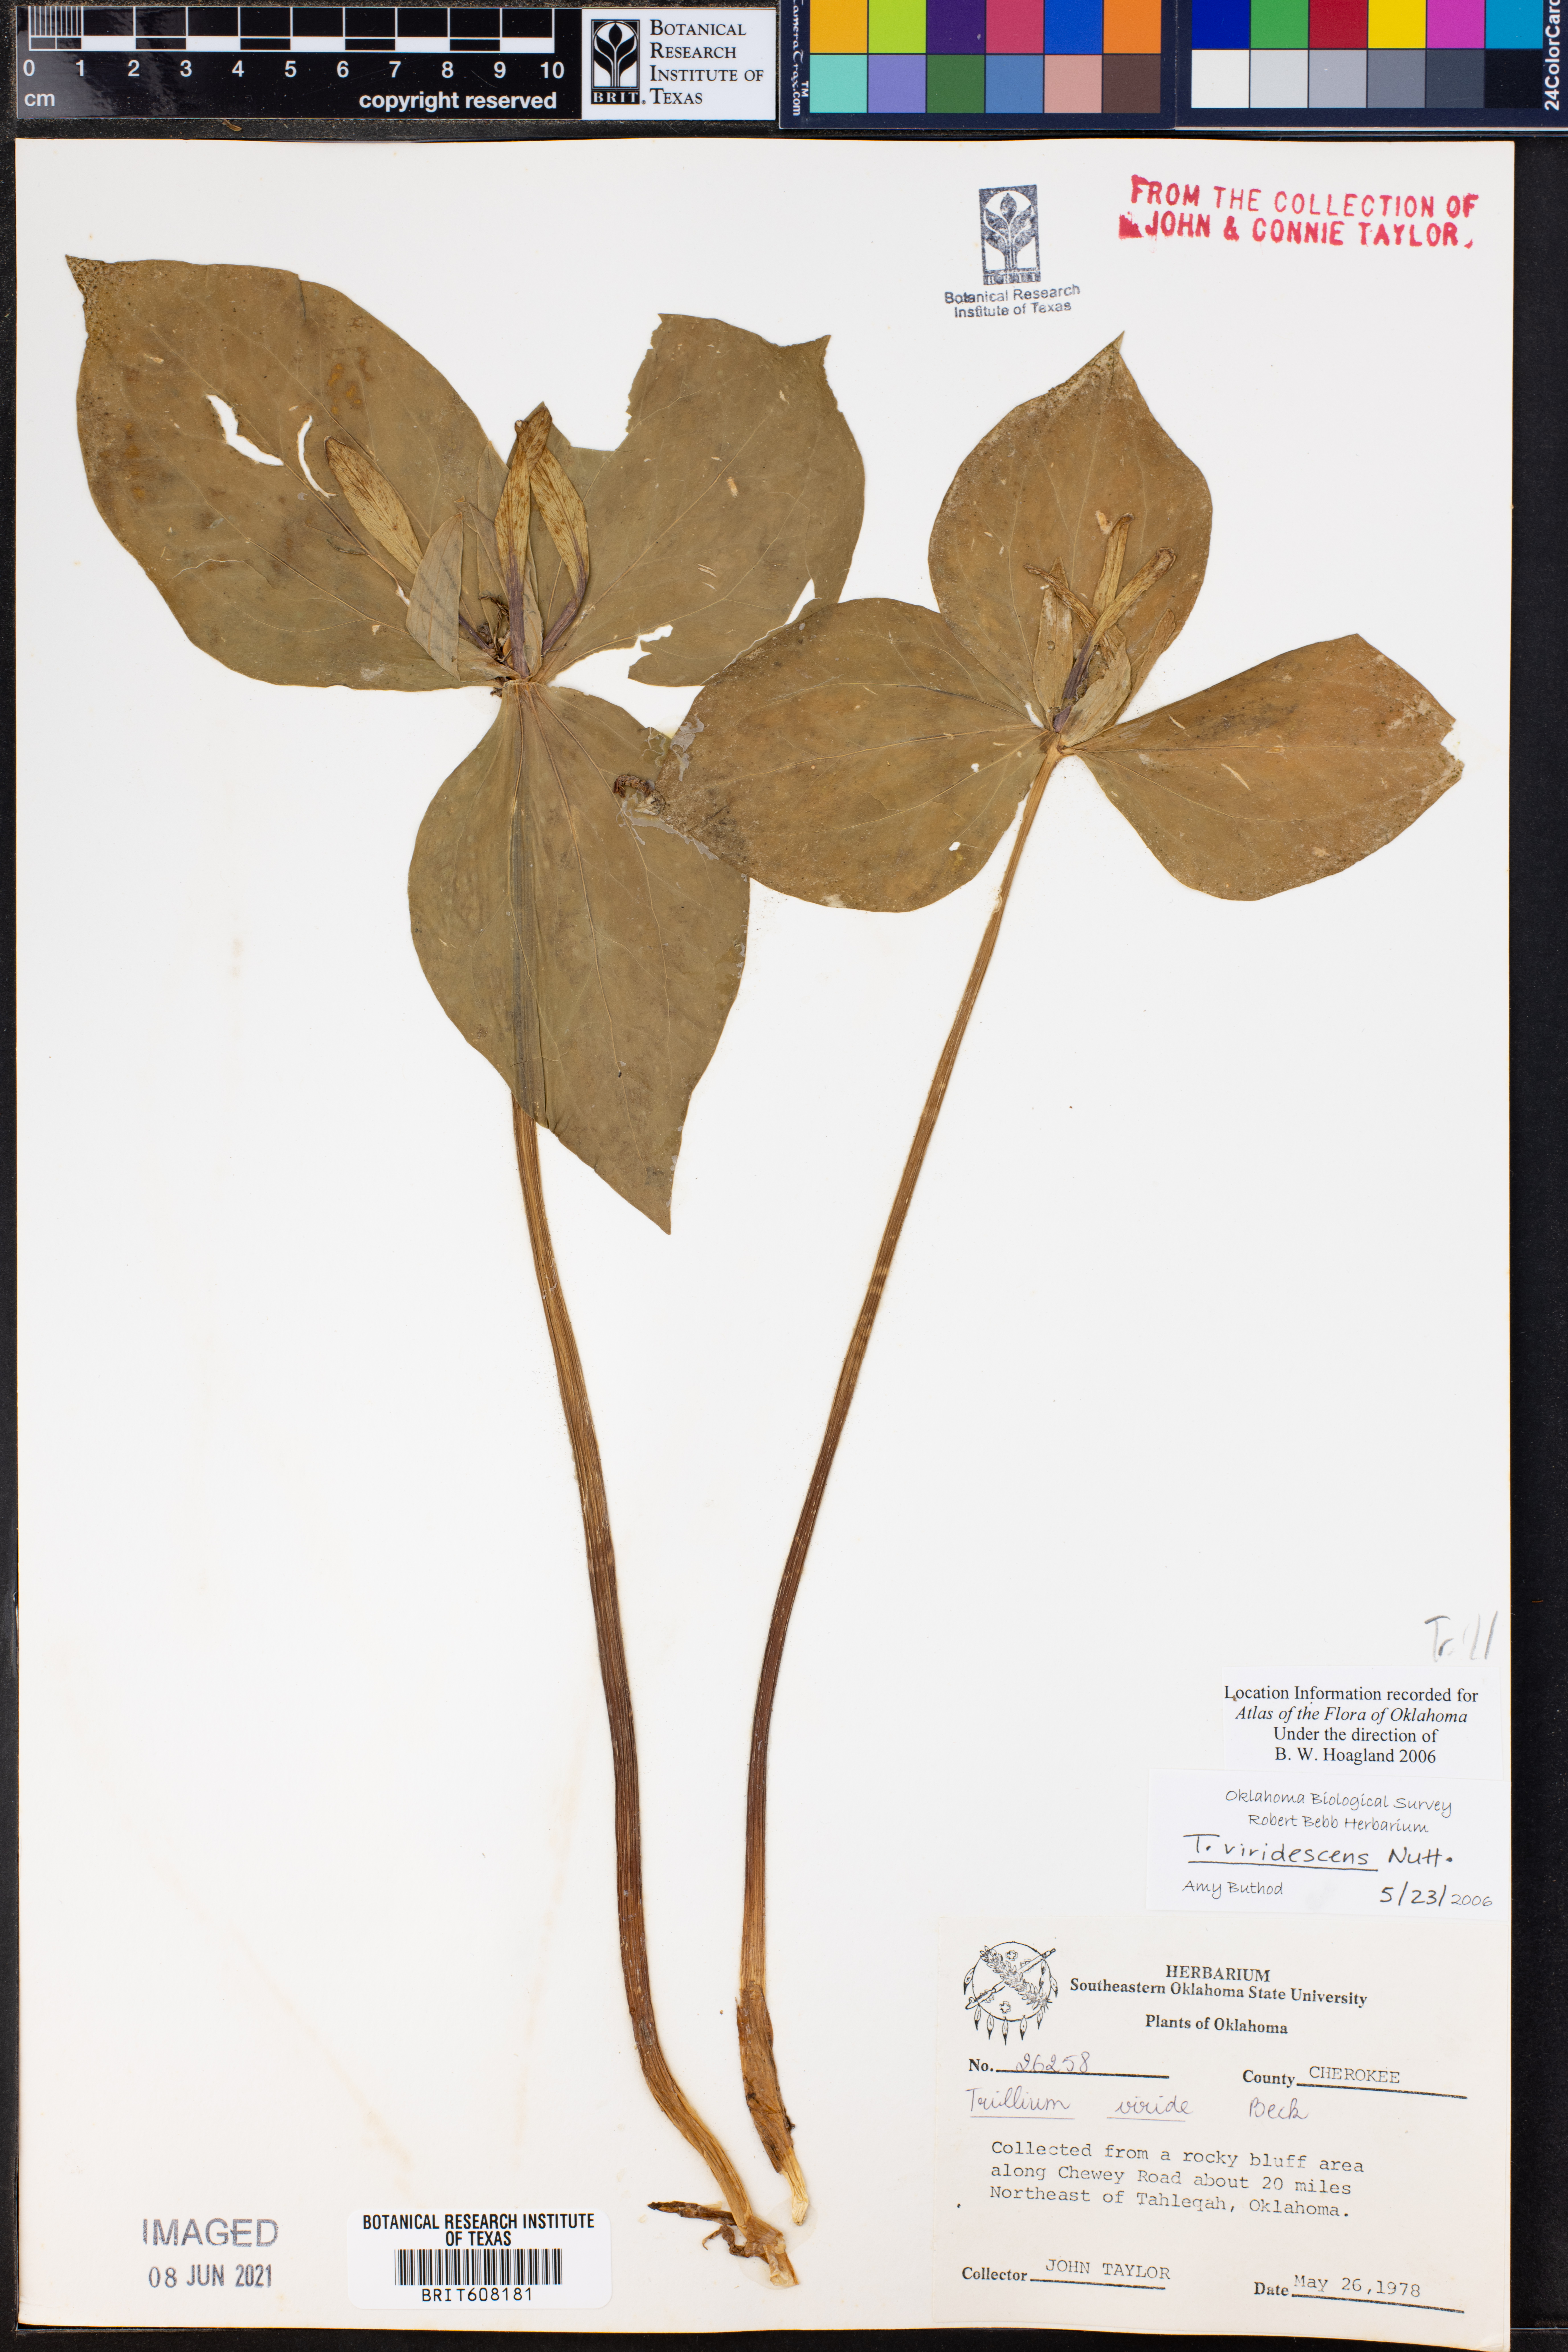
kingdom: Plantae
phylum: Tracheophyta
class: Liliopsida
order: Liliales
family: Melanthiaceae
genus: Trillium
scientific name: Trillium viridescens
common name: Ozark green trillium
